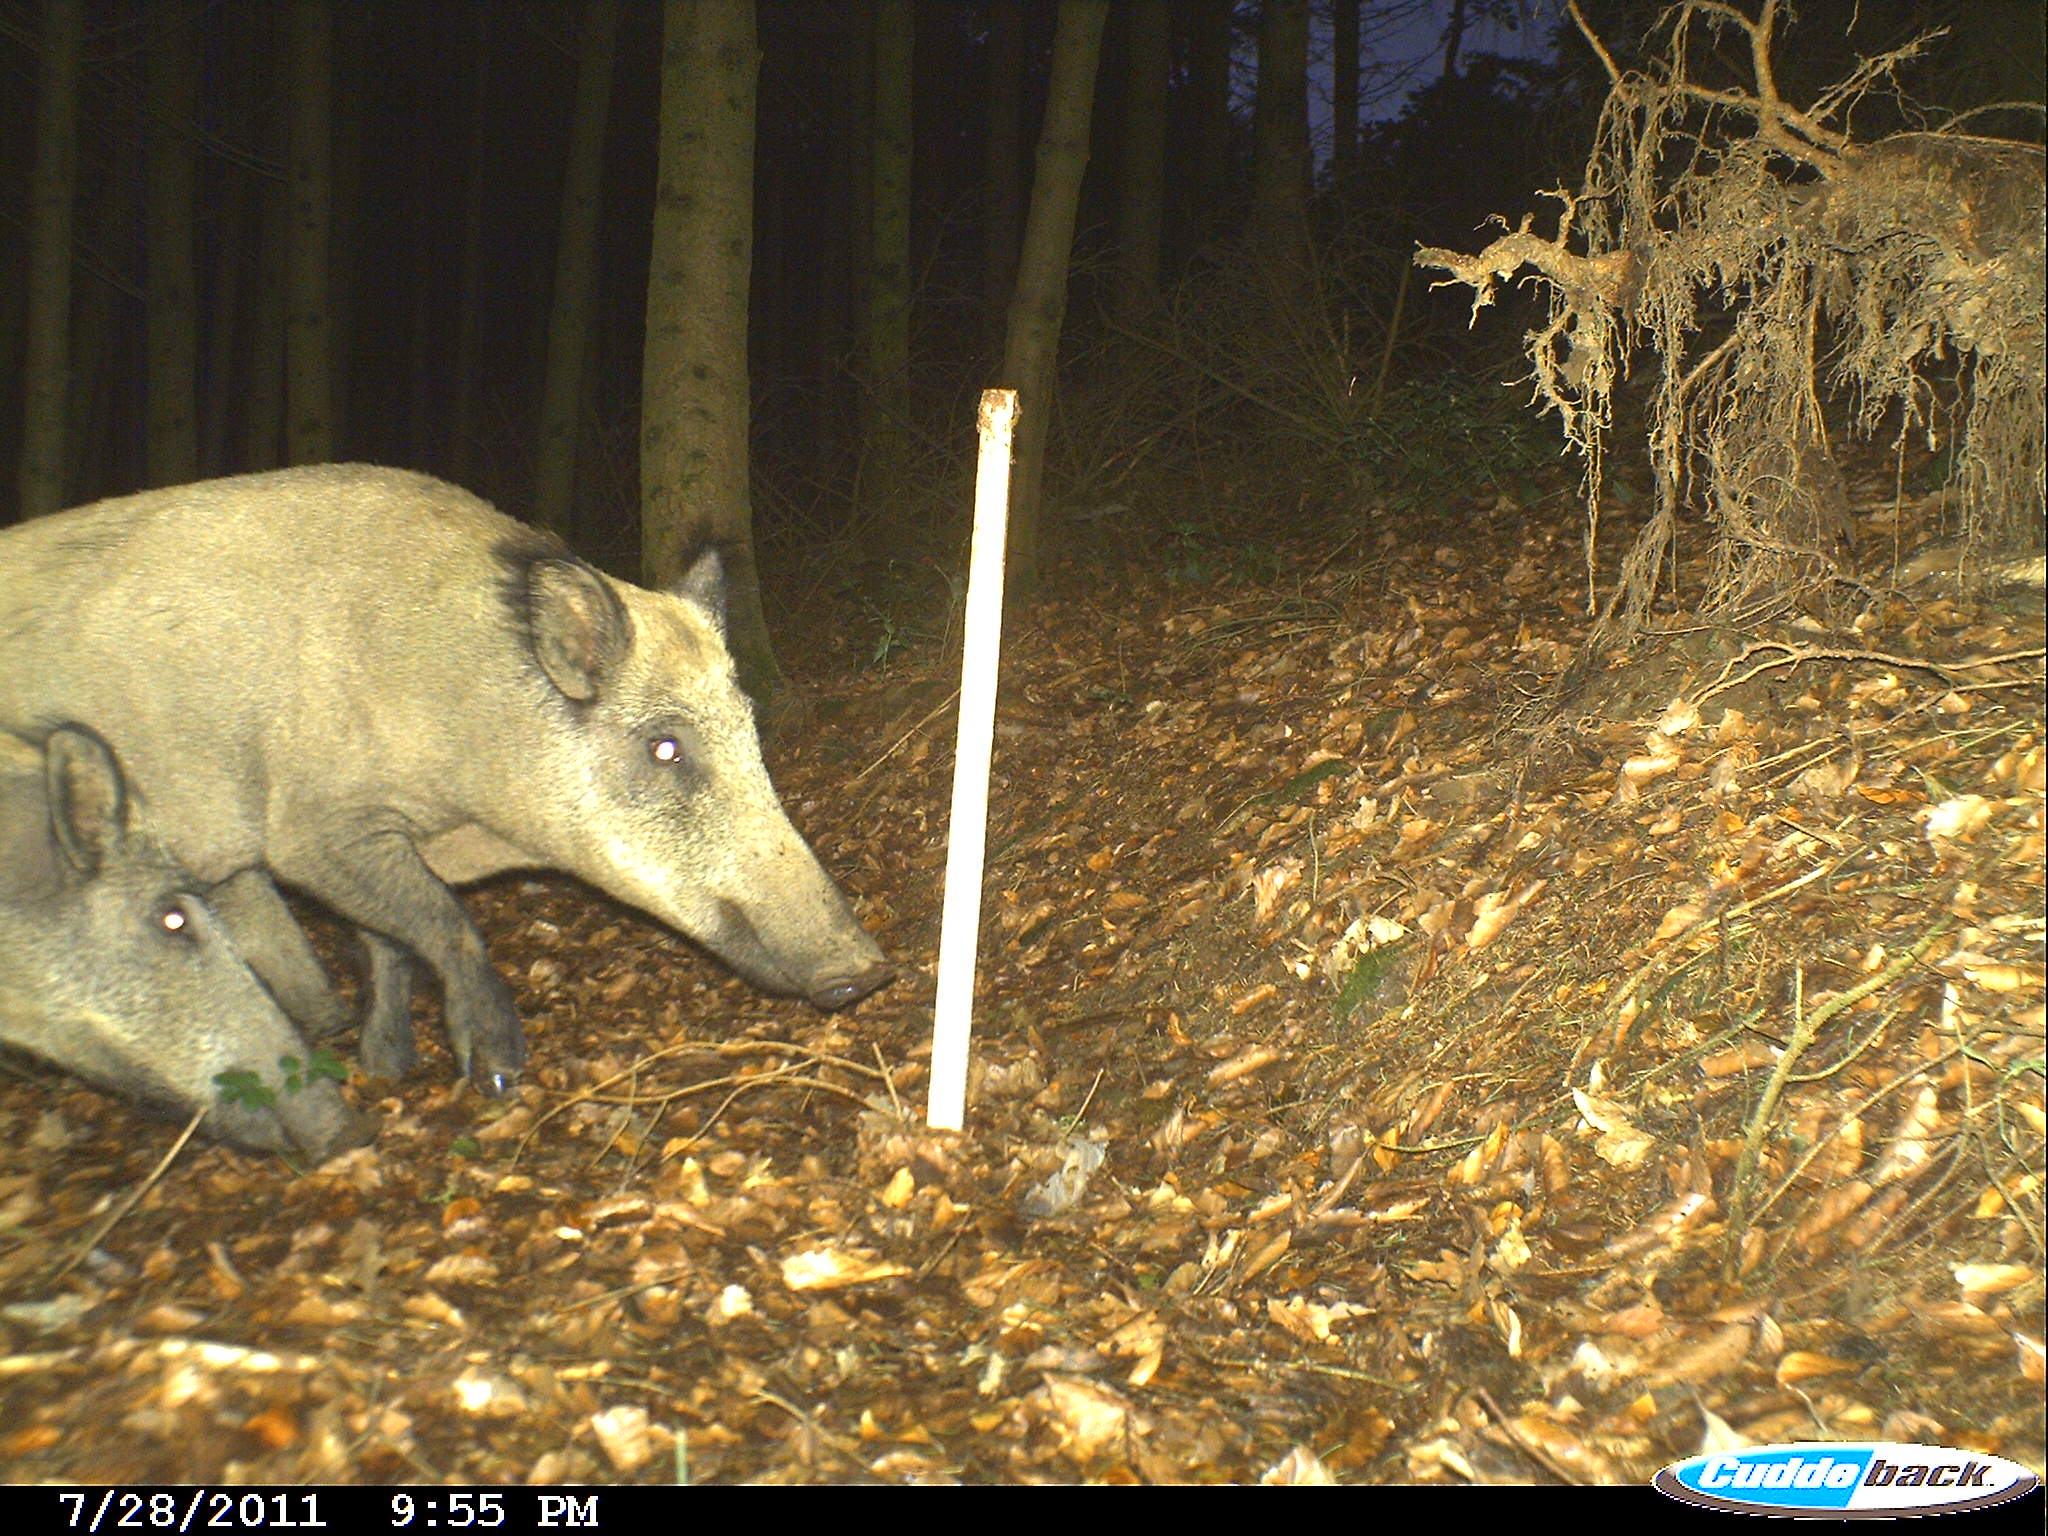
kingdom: Animalia
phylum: Chordata
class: Mammalia
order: Artiodactyla
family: Suidae
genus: Sus
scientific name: Sus scrofa
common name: Wild boar
